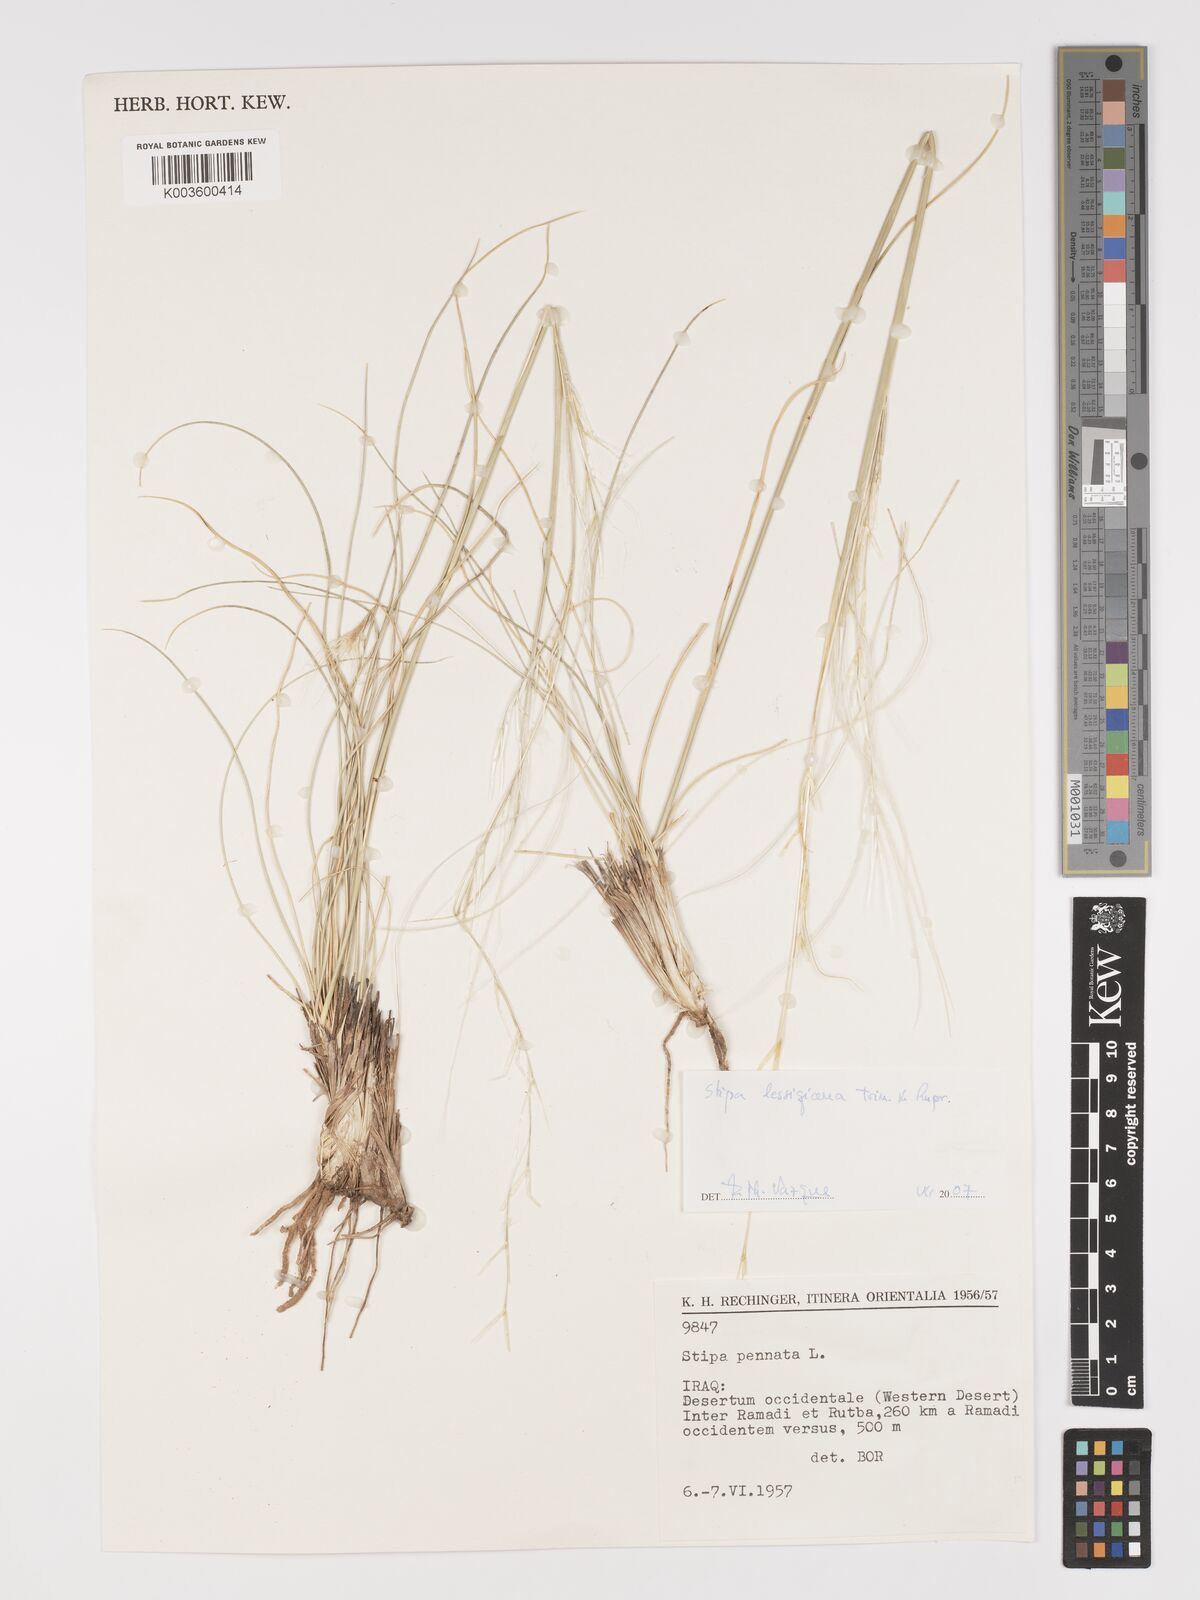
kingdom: Plantae
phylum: Tracheophyta
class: Liliopsida
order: Poales
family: Poaceae
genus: Stipa
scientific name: Stipa lessingiana
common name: Needle grass
